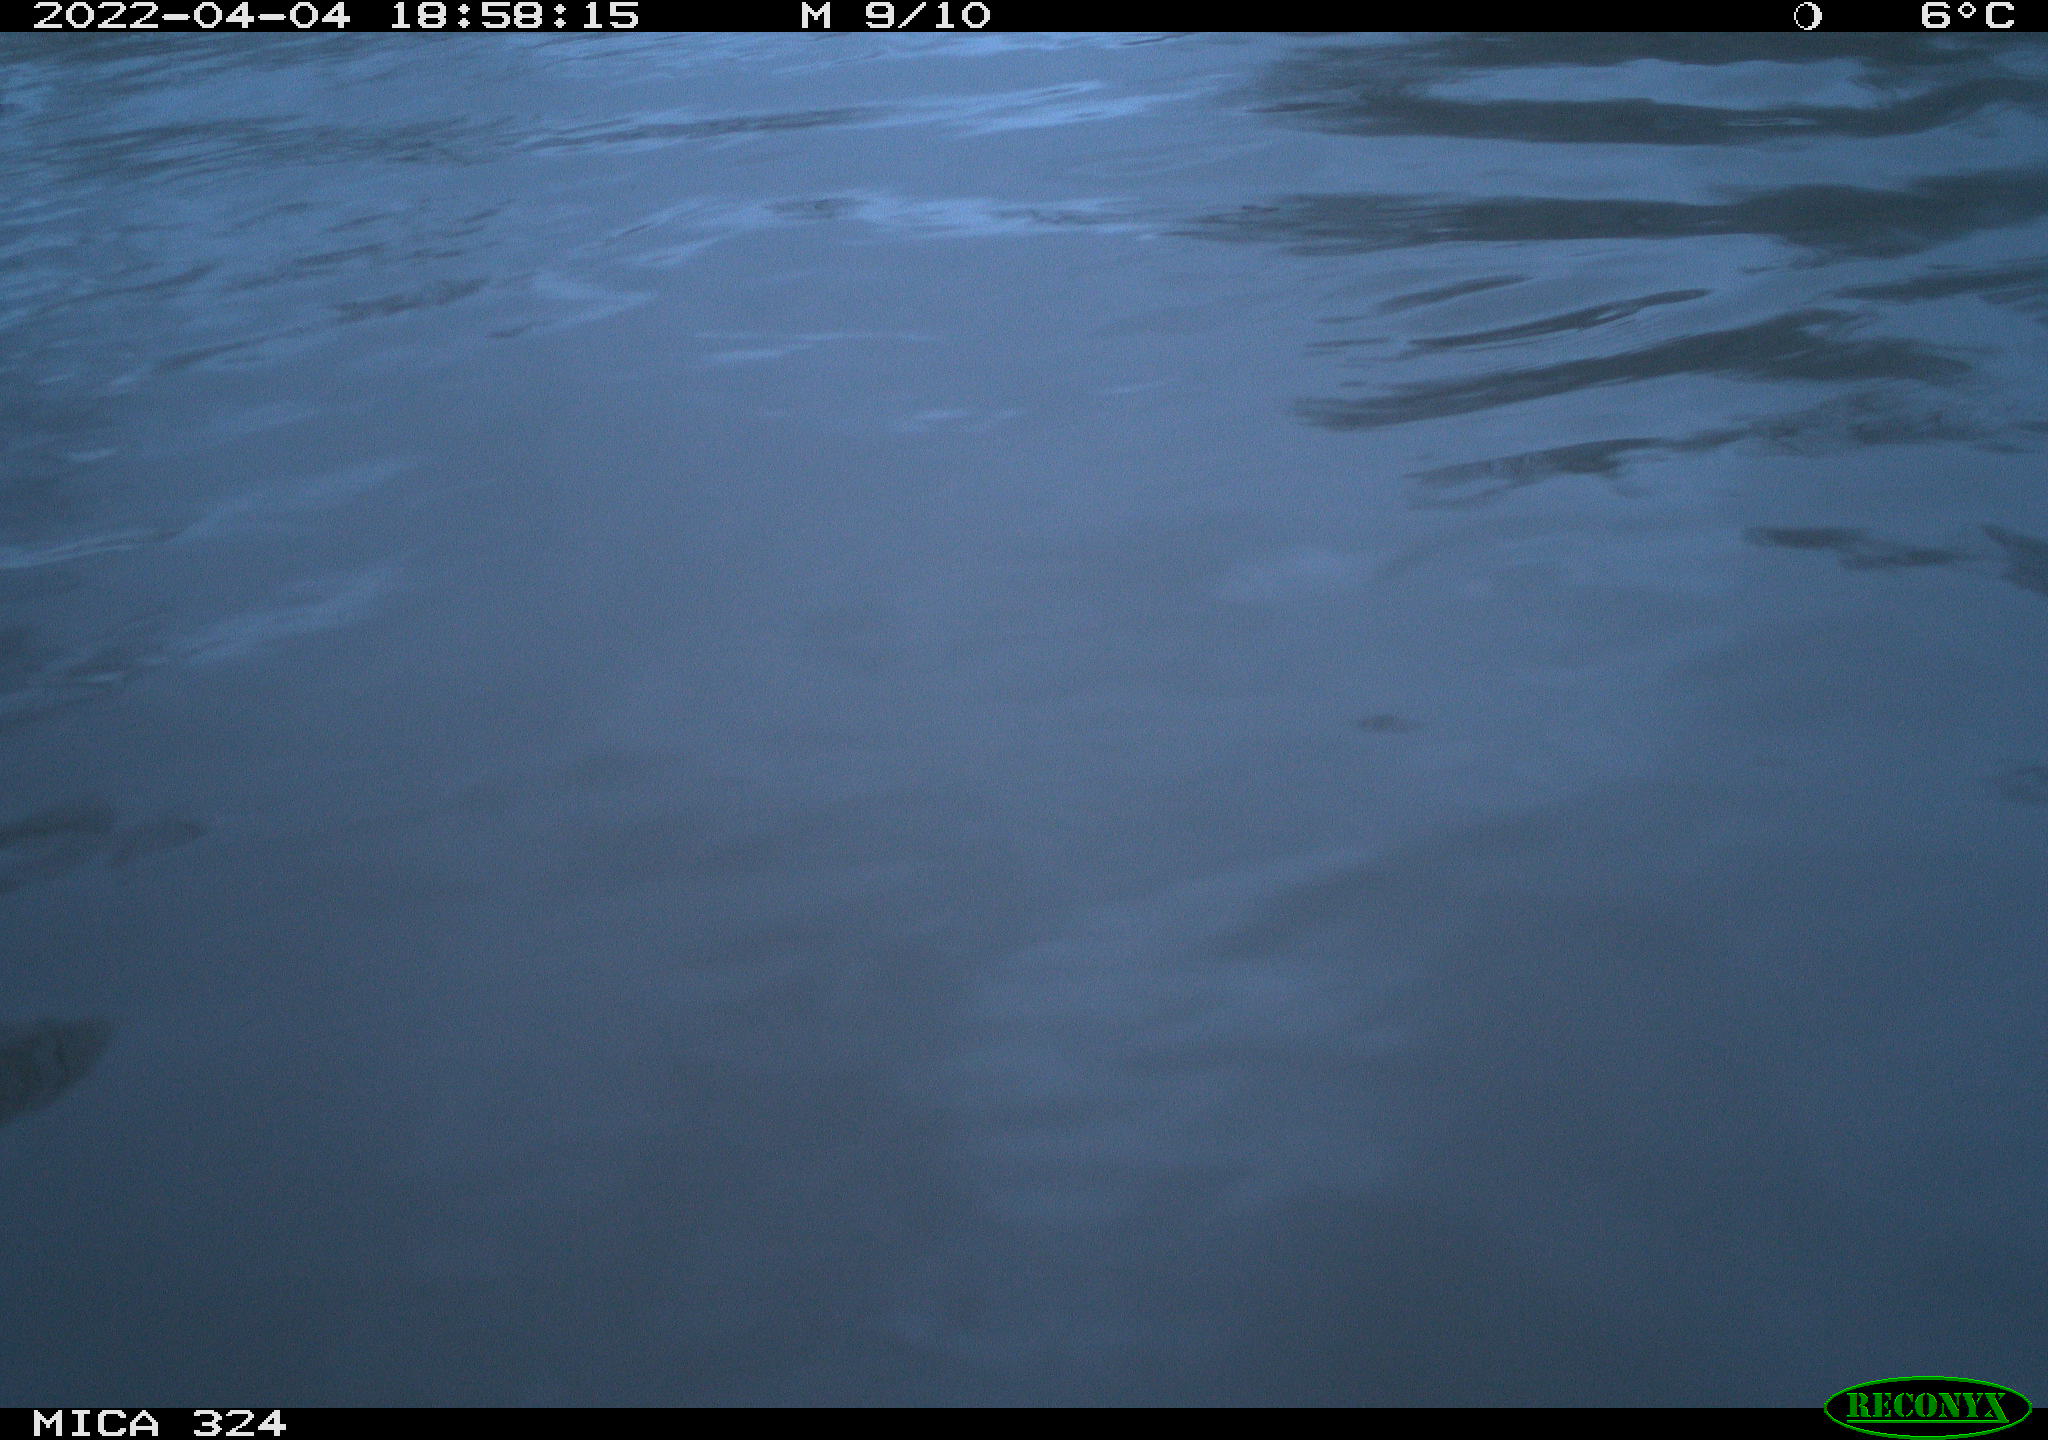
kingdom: Animalia
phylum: Chordata
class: Mammalia
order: Rodentia
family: Cricetidae
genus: Ondatra
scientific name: Ondatra zibethicus
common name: Muskrat
